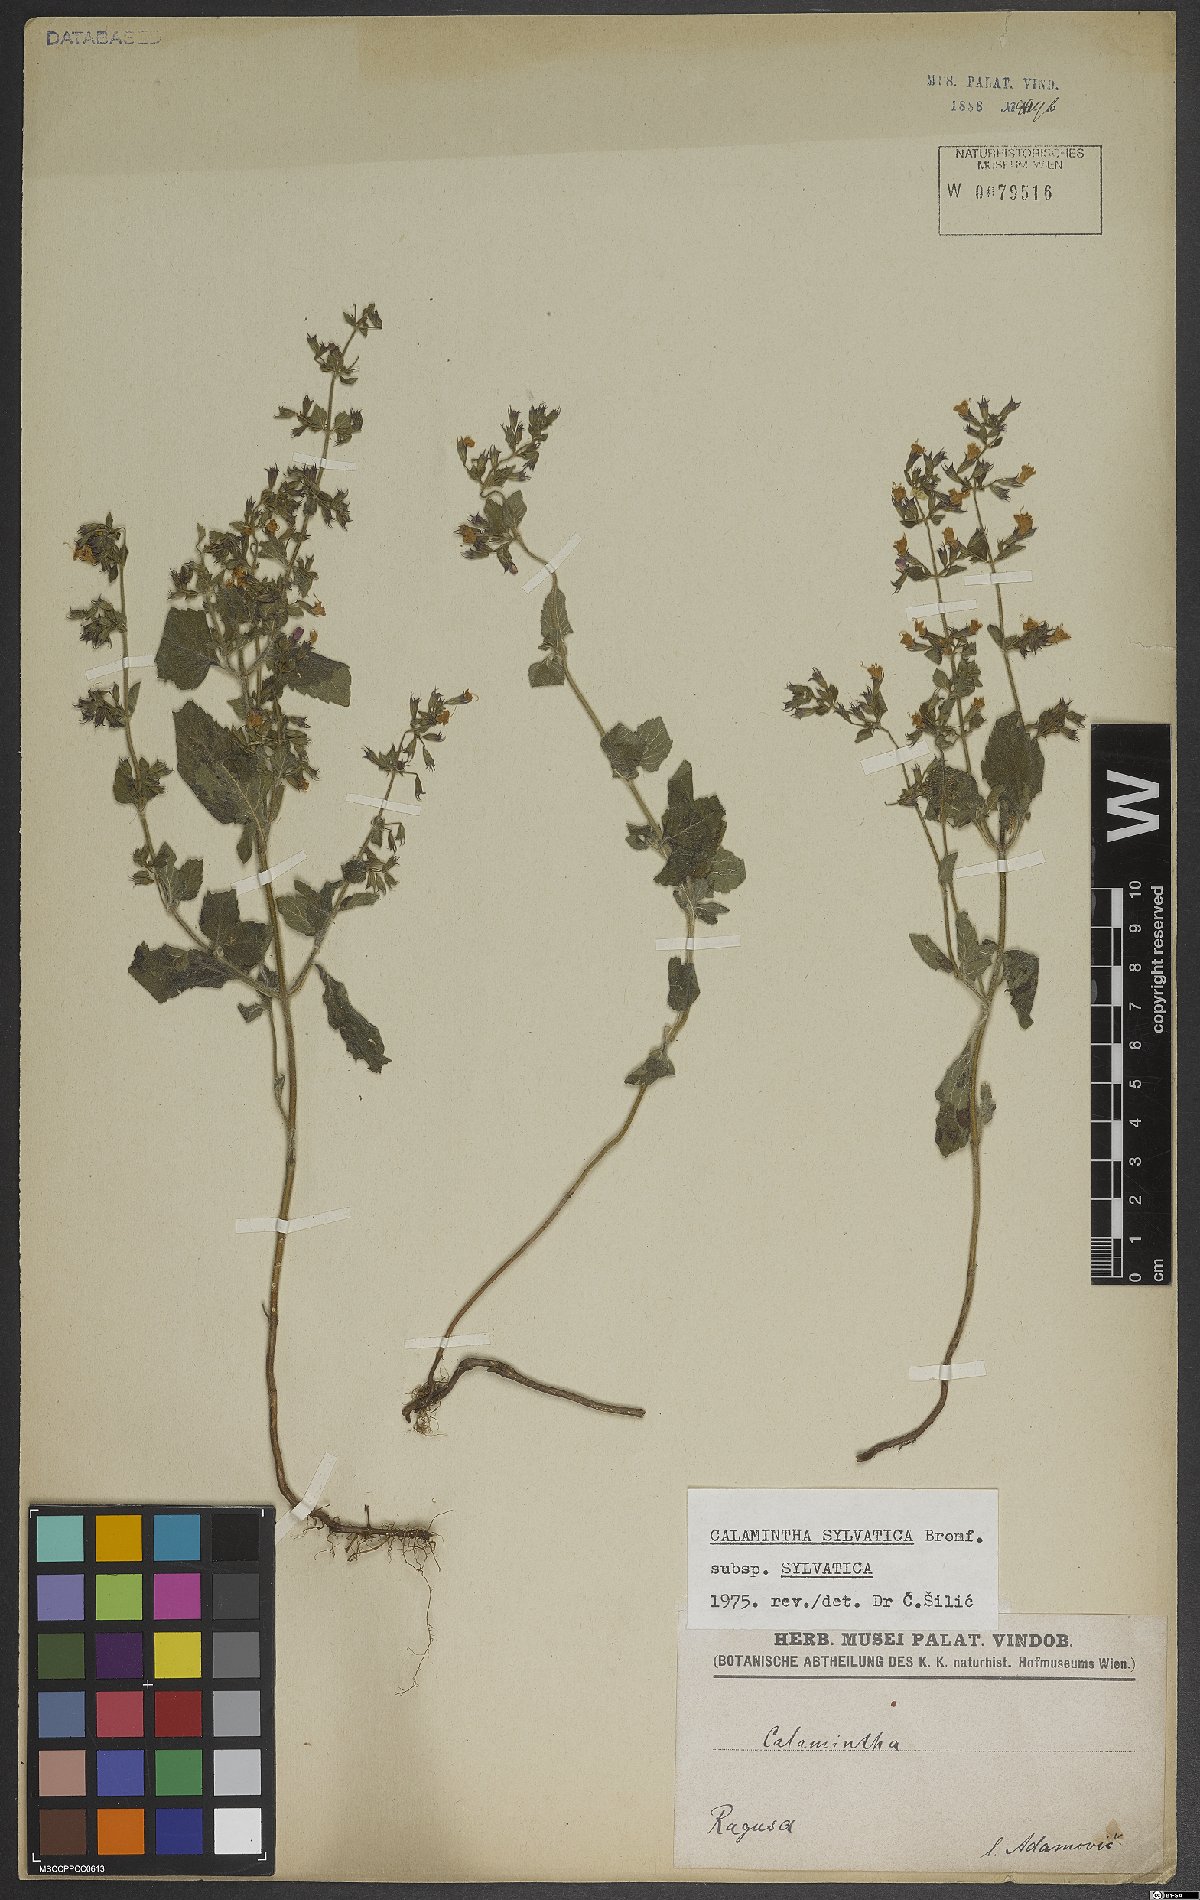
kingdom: Plantae
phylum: Tracheophyta
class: Magnoliopsida
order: Lamiales
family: Lamiaceae
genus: Clinopodium
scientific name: Clinopodium menthifolium
